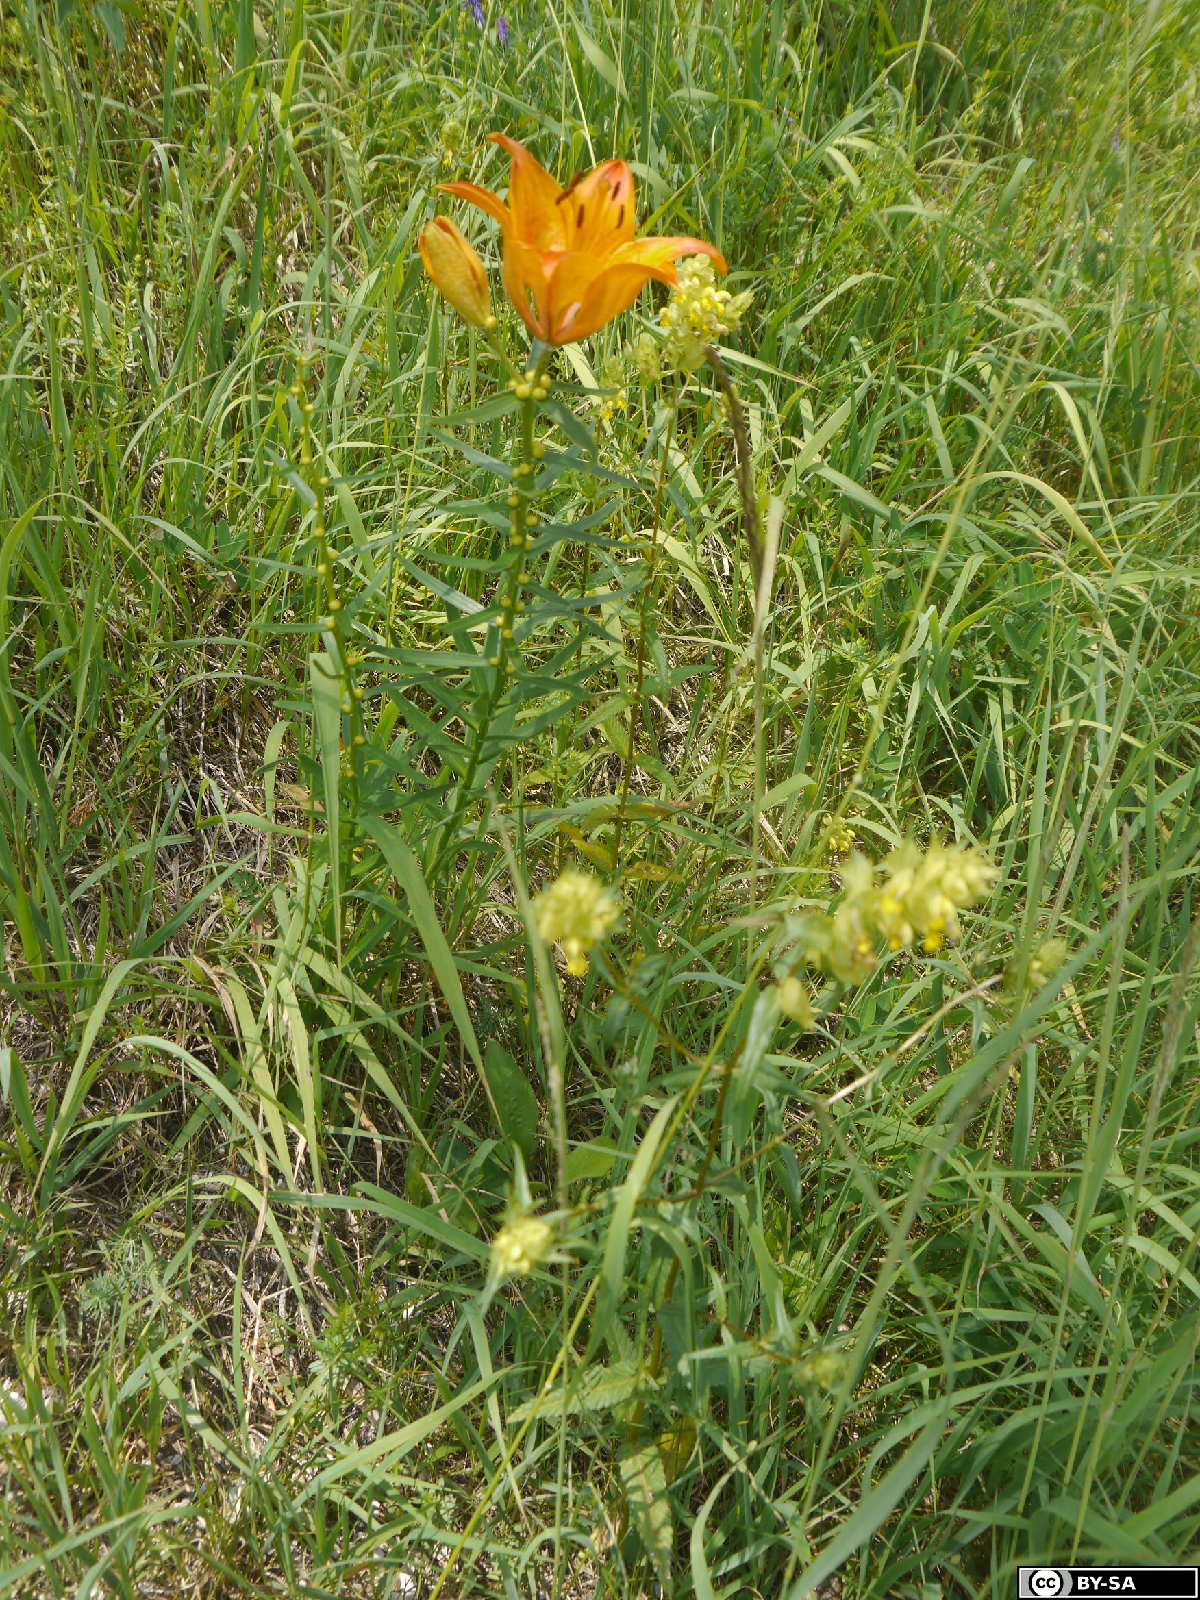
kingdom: Plantae
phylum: Tracheophyta
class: Liliopsida
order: Liliales
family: Liliaceae
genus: Lilium
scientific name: Lilium bulbiferum
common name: Orange lily
